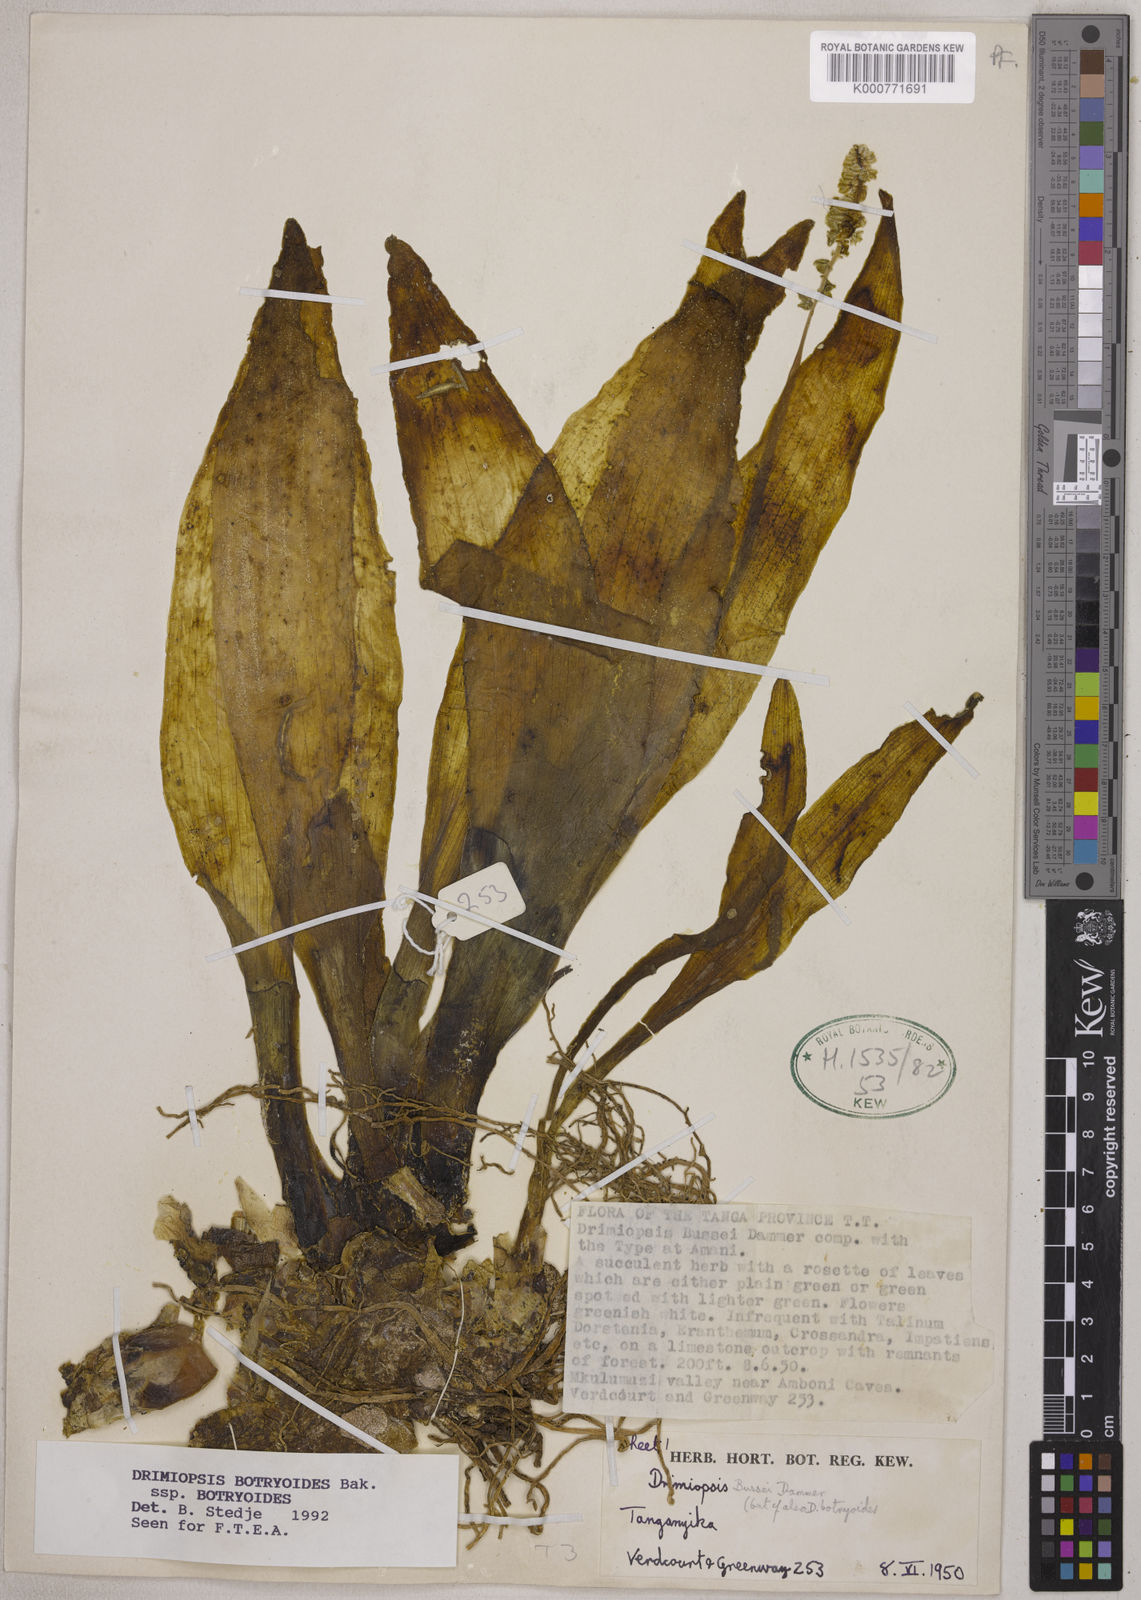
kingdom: Plantae
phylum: Tracheophyta
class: Liliopsida
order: Asparagales
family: Asparagaceae
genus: Drimiopsis
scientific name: Drimiopsis botryoides
